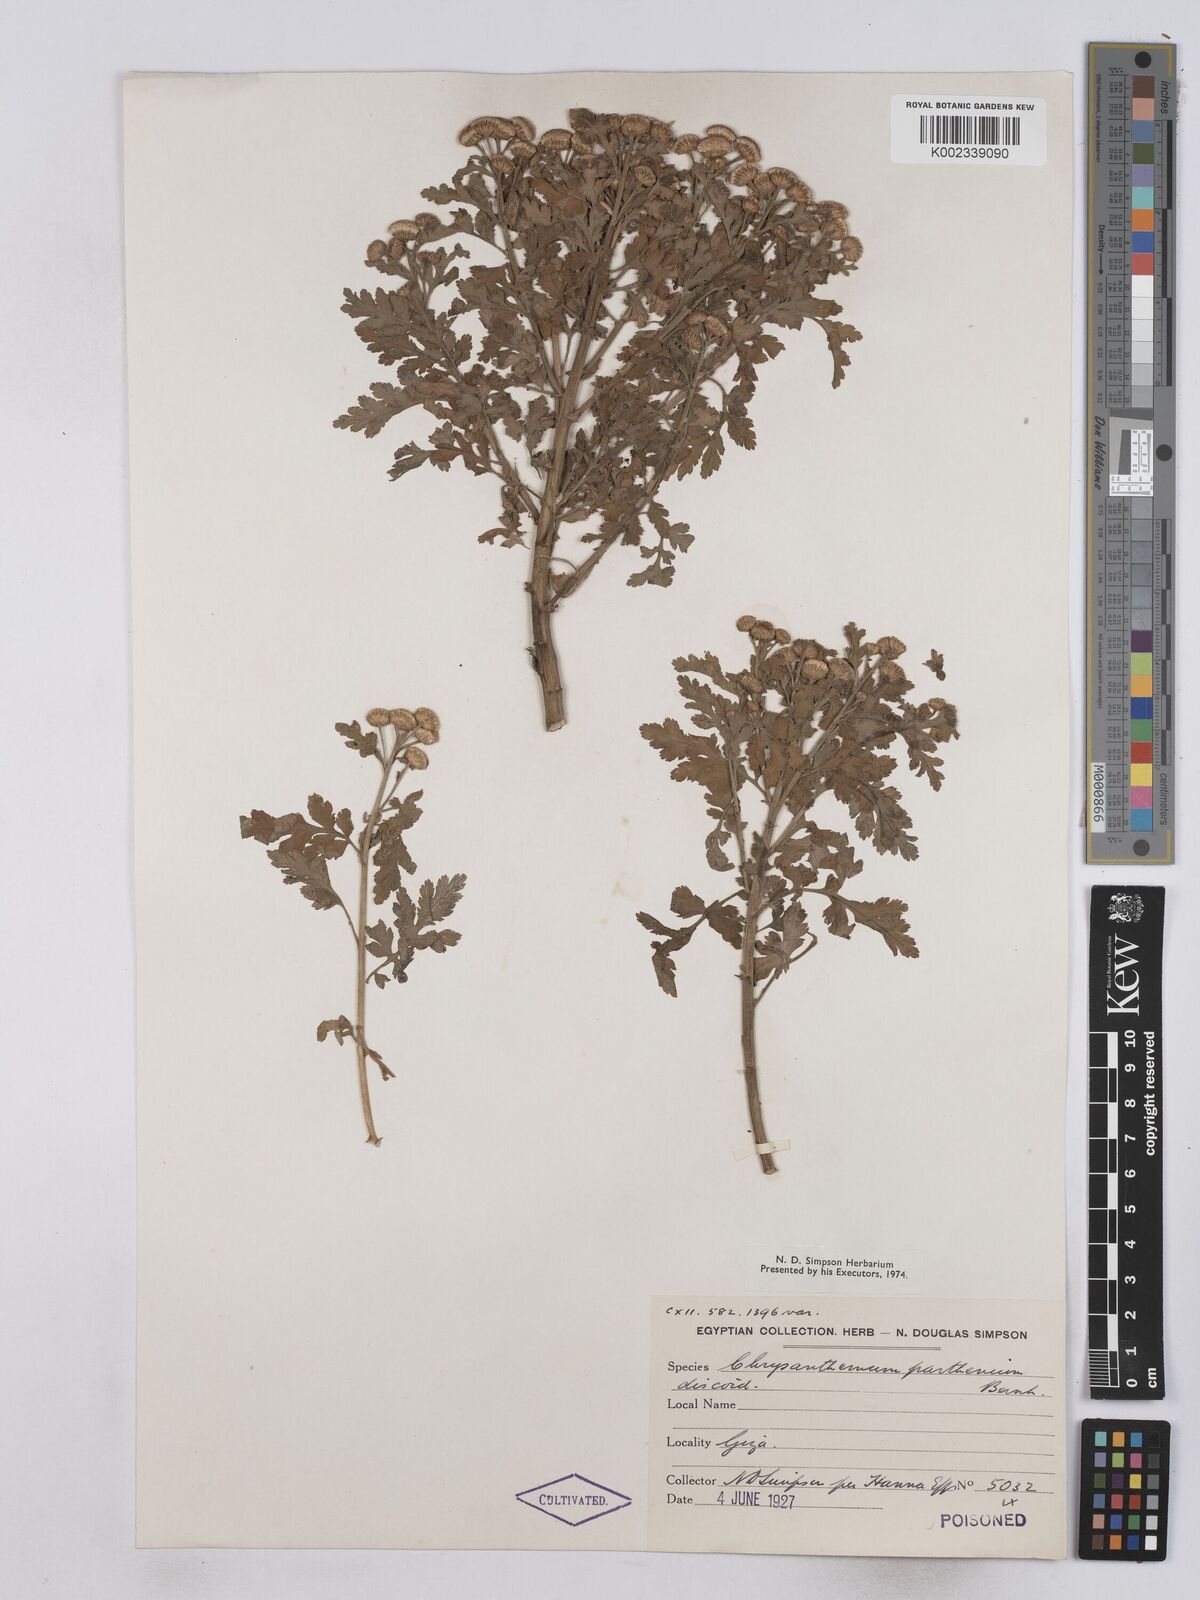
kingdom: Plantae
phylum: Tracheophyta
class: Magnoliopsida
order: Asterales
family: Asteraceae
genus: Tanacetum
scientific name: Tanacetum parthenium
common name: Feverfew
